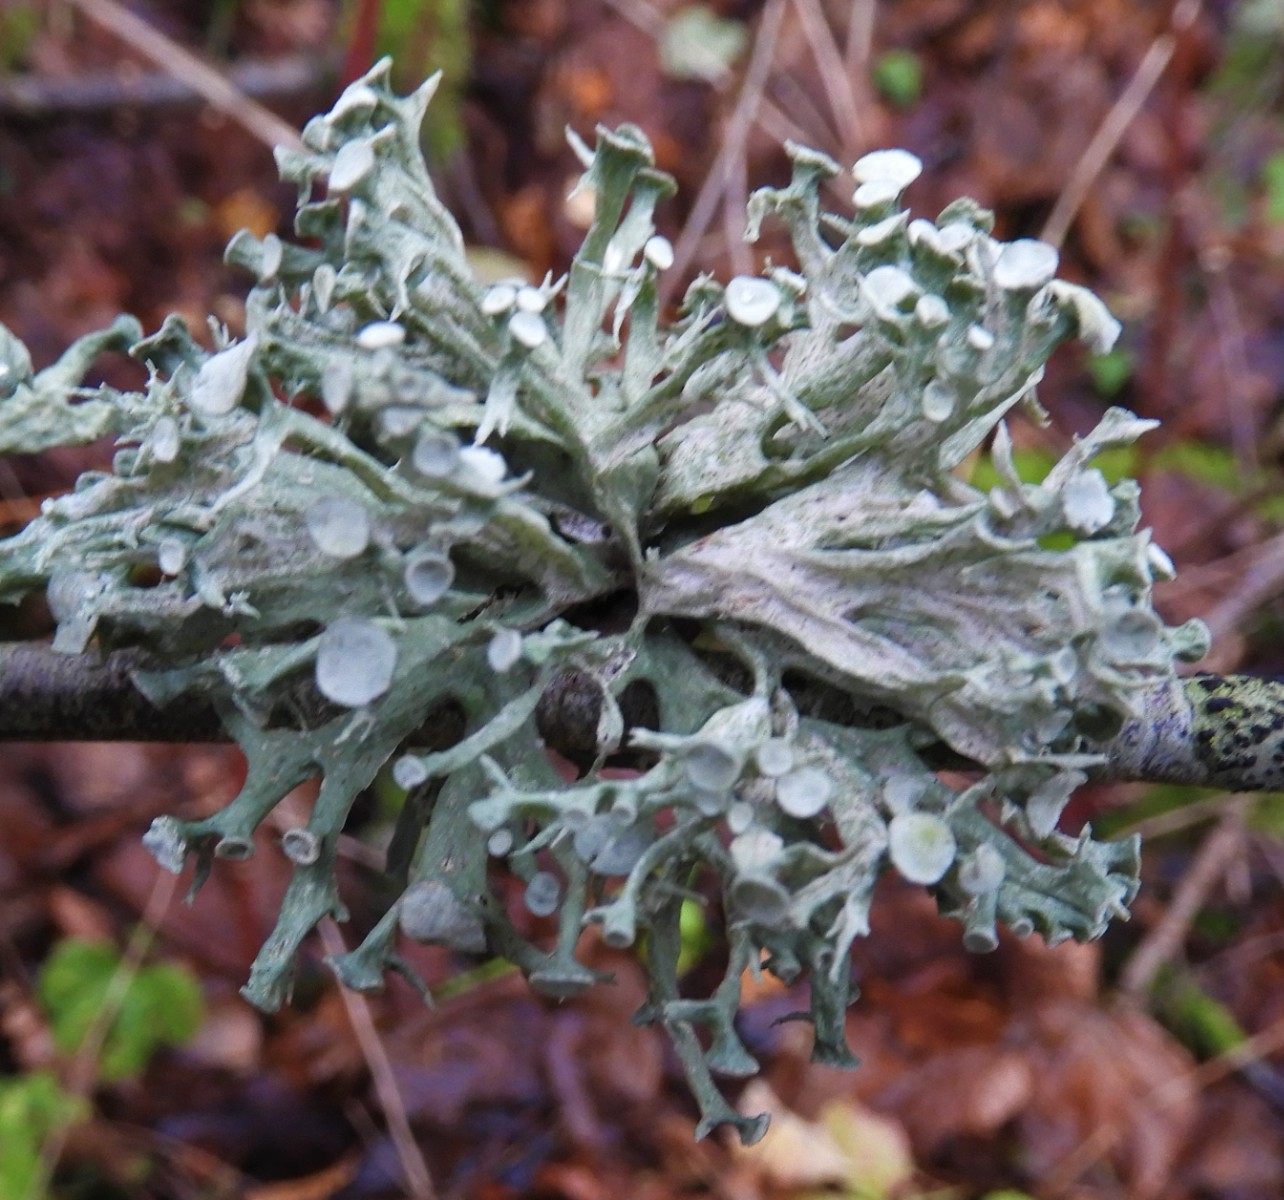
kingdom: Fungi
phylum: Ascomycota
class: Lecanoromycetes
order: Lecanorales
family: Ramalinaceae
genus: Ramalina
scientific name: Ramalina fastigiata
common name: tue-grenlav
